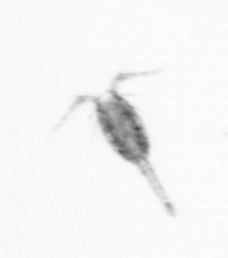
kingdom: Animalia
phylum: Arthropoda
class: Copepoda
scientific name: Copepoda
